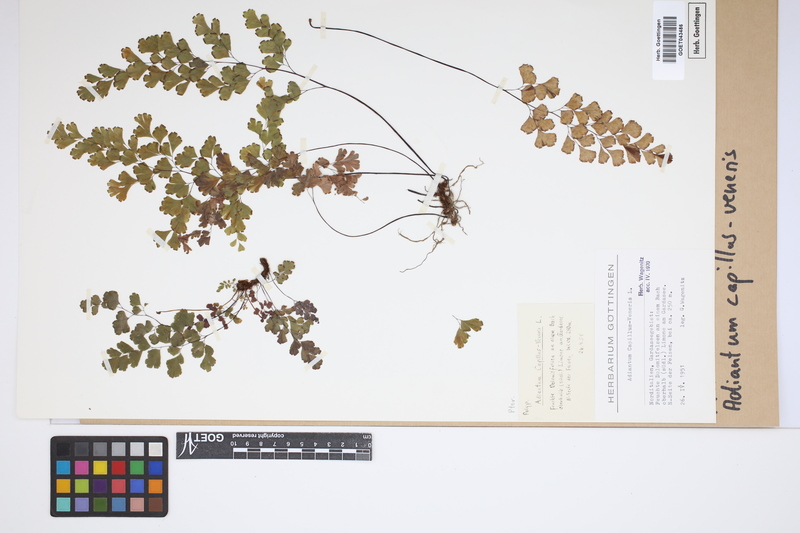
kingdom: Plantae
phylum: Tracheophyta
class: Polypodiopsida
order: Polypodiales
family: Pteridaceae
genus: Adiantum
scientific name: Adiantum capillus-veneris
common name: Maidenhair fern
